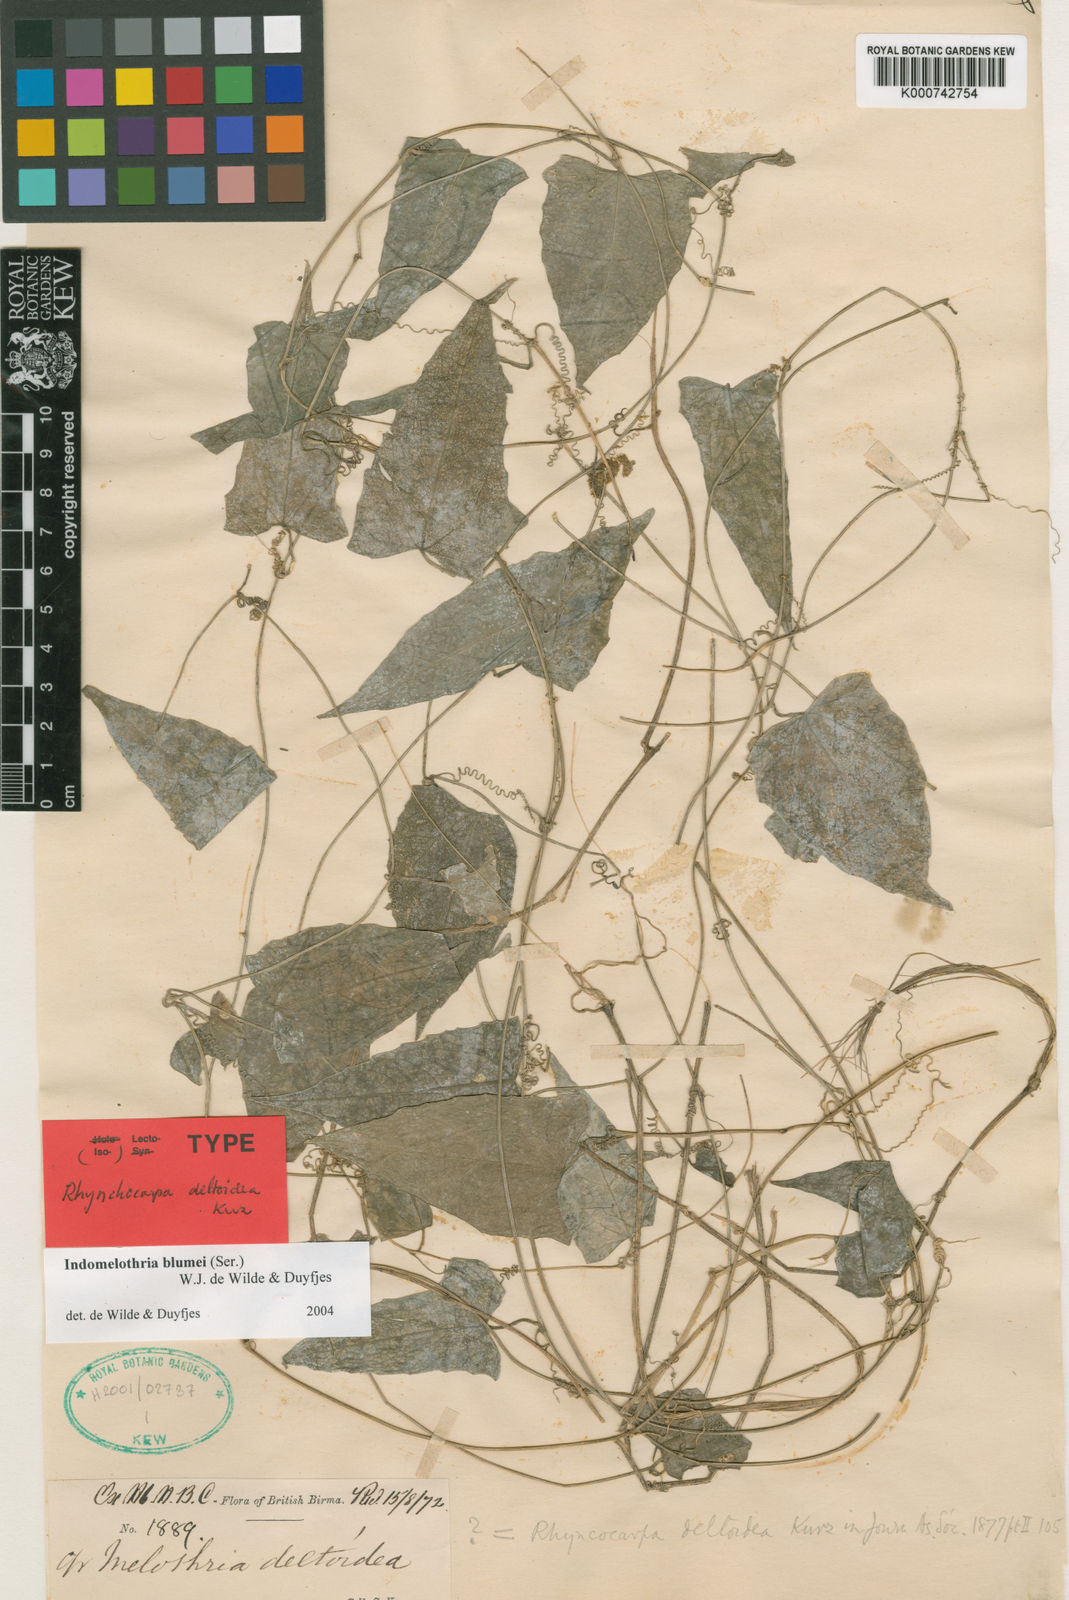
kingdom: Plantae
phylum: Tracheophyta
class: Magnoliopsida
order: Cucurbitales
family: Cucurbitaceae
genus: Indomelothria
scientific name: Indomelothria blumei
